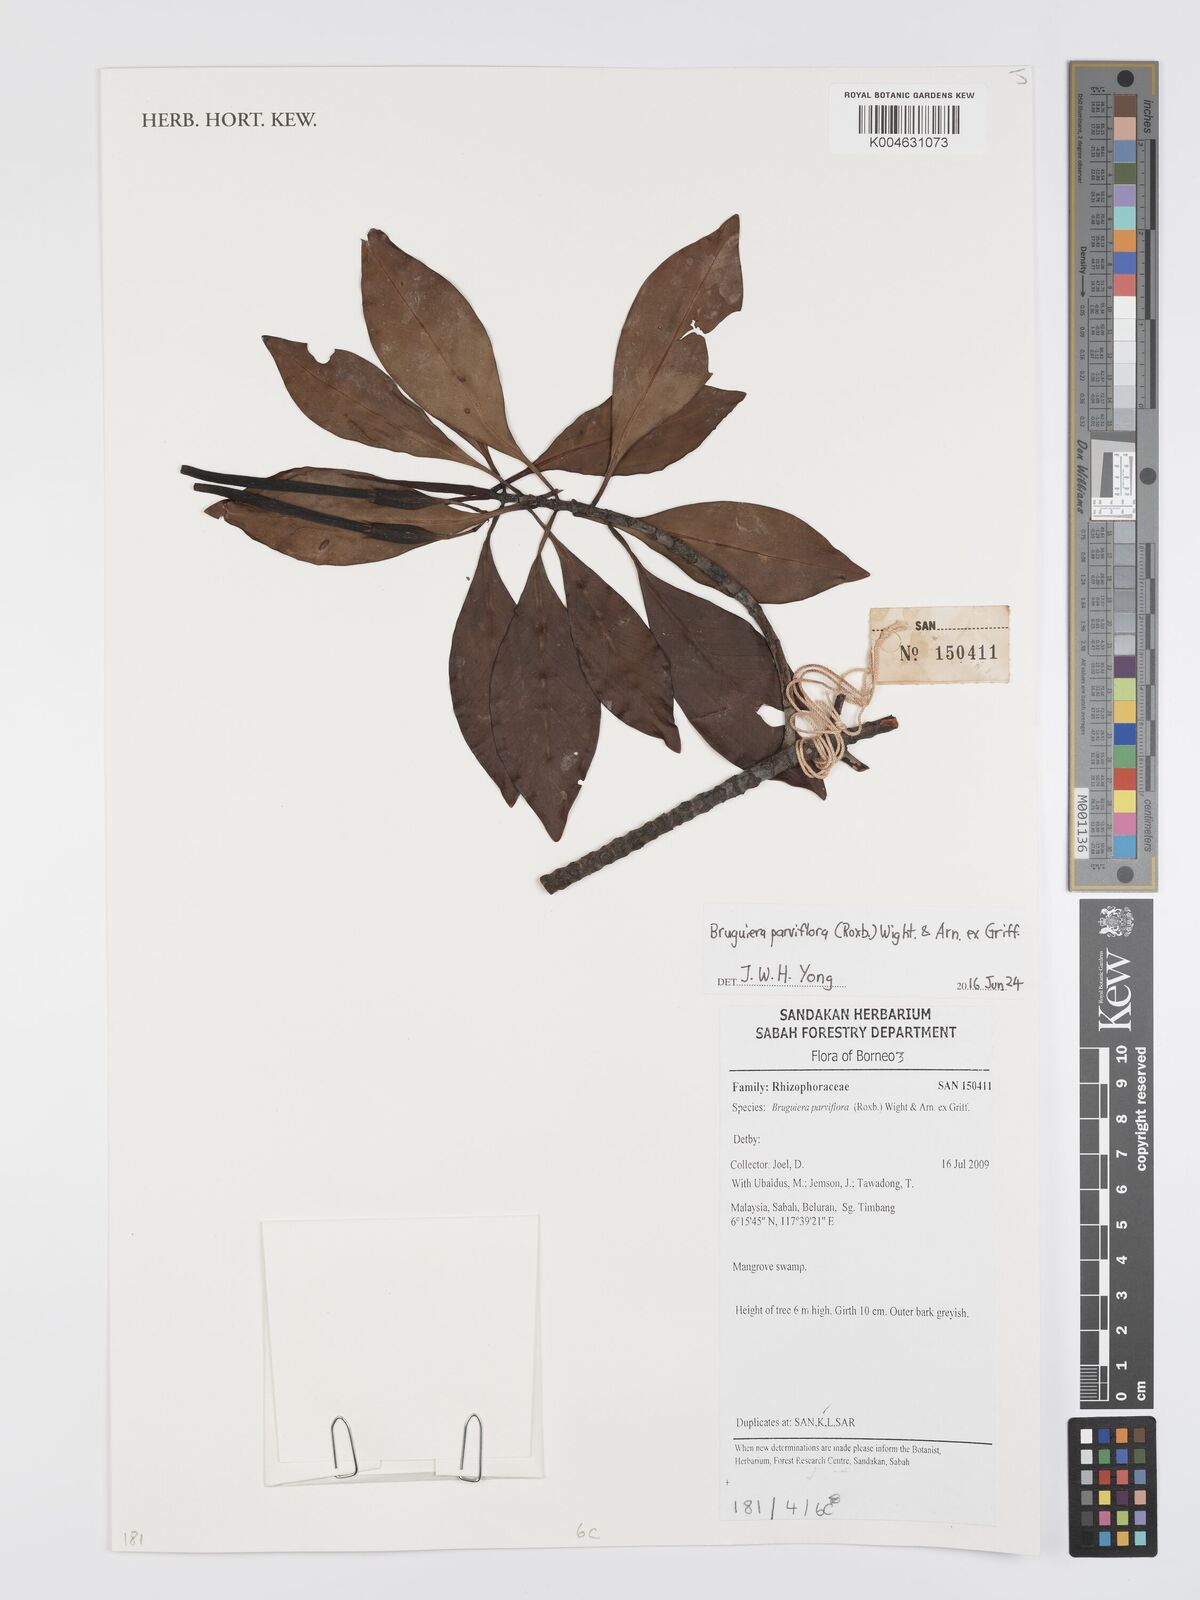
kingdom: Plantae
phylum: Tracheophyta
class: Magnoliopsida
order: Malpighiales
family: Rhizophoraceae
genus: Bruguiera
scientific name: Bruguiera parviflora
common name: Smallflower bruguiera
